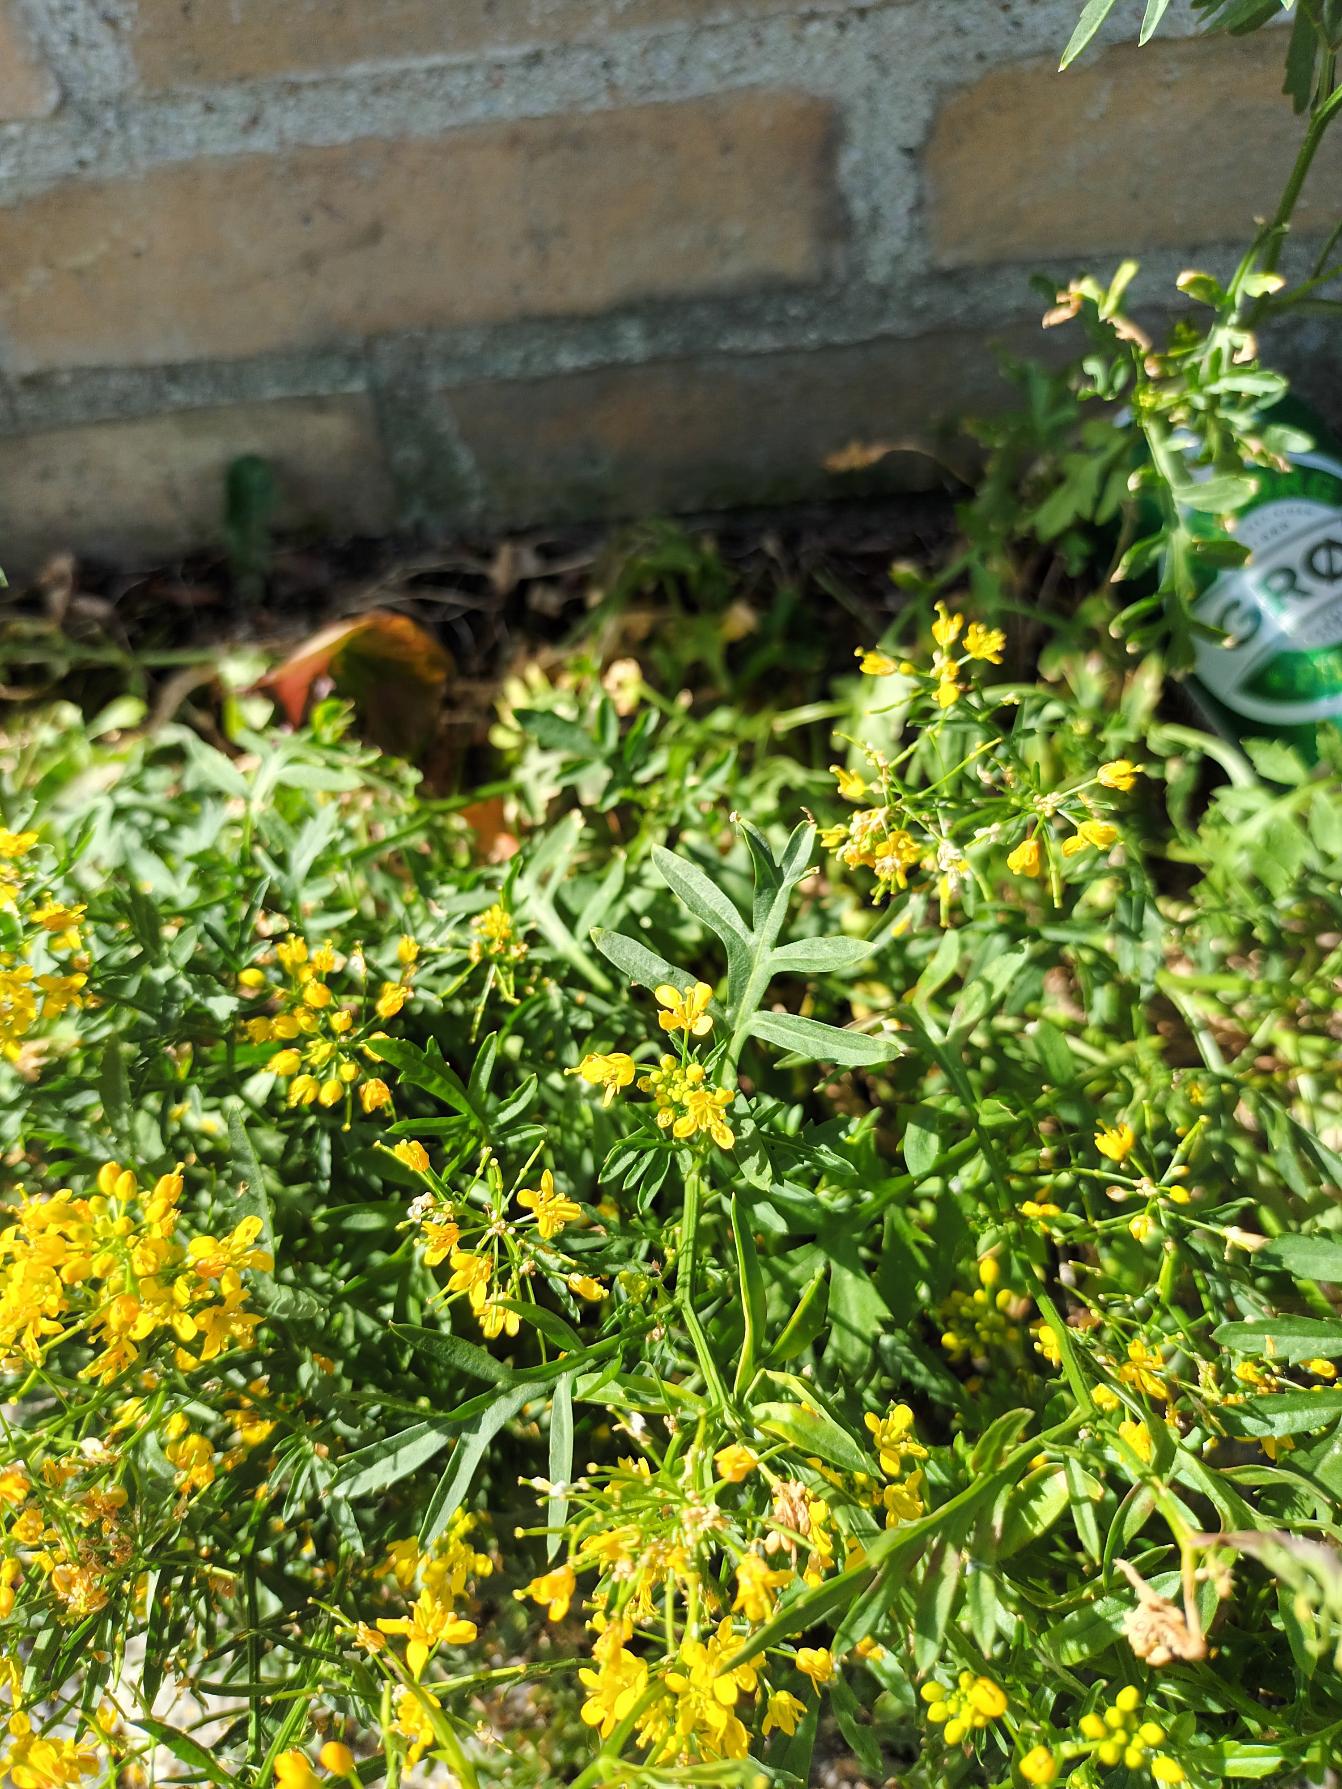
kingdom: Plantae
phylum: Tracheophyta
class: Magnoliopsida
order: Brassicales
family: Brassicaceae
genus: Rorippa
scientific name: Rorippa sylvestris
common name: Vej-guldkarse
